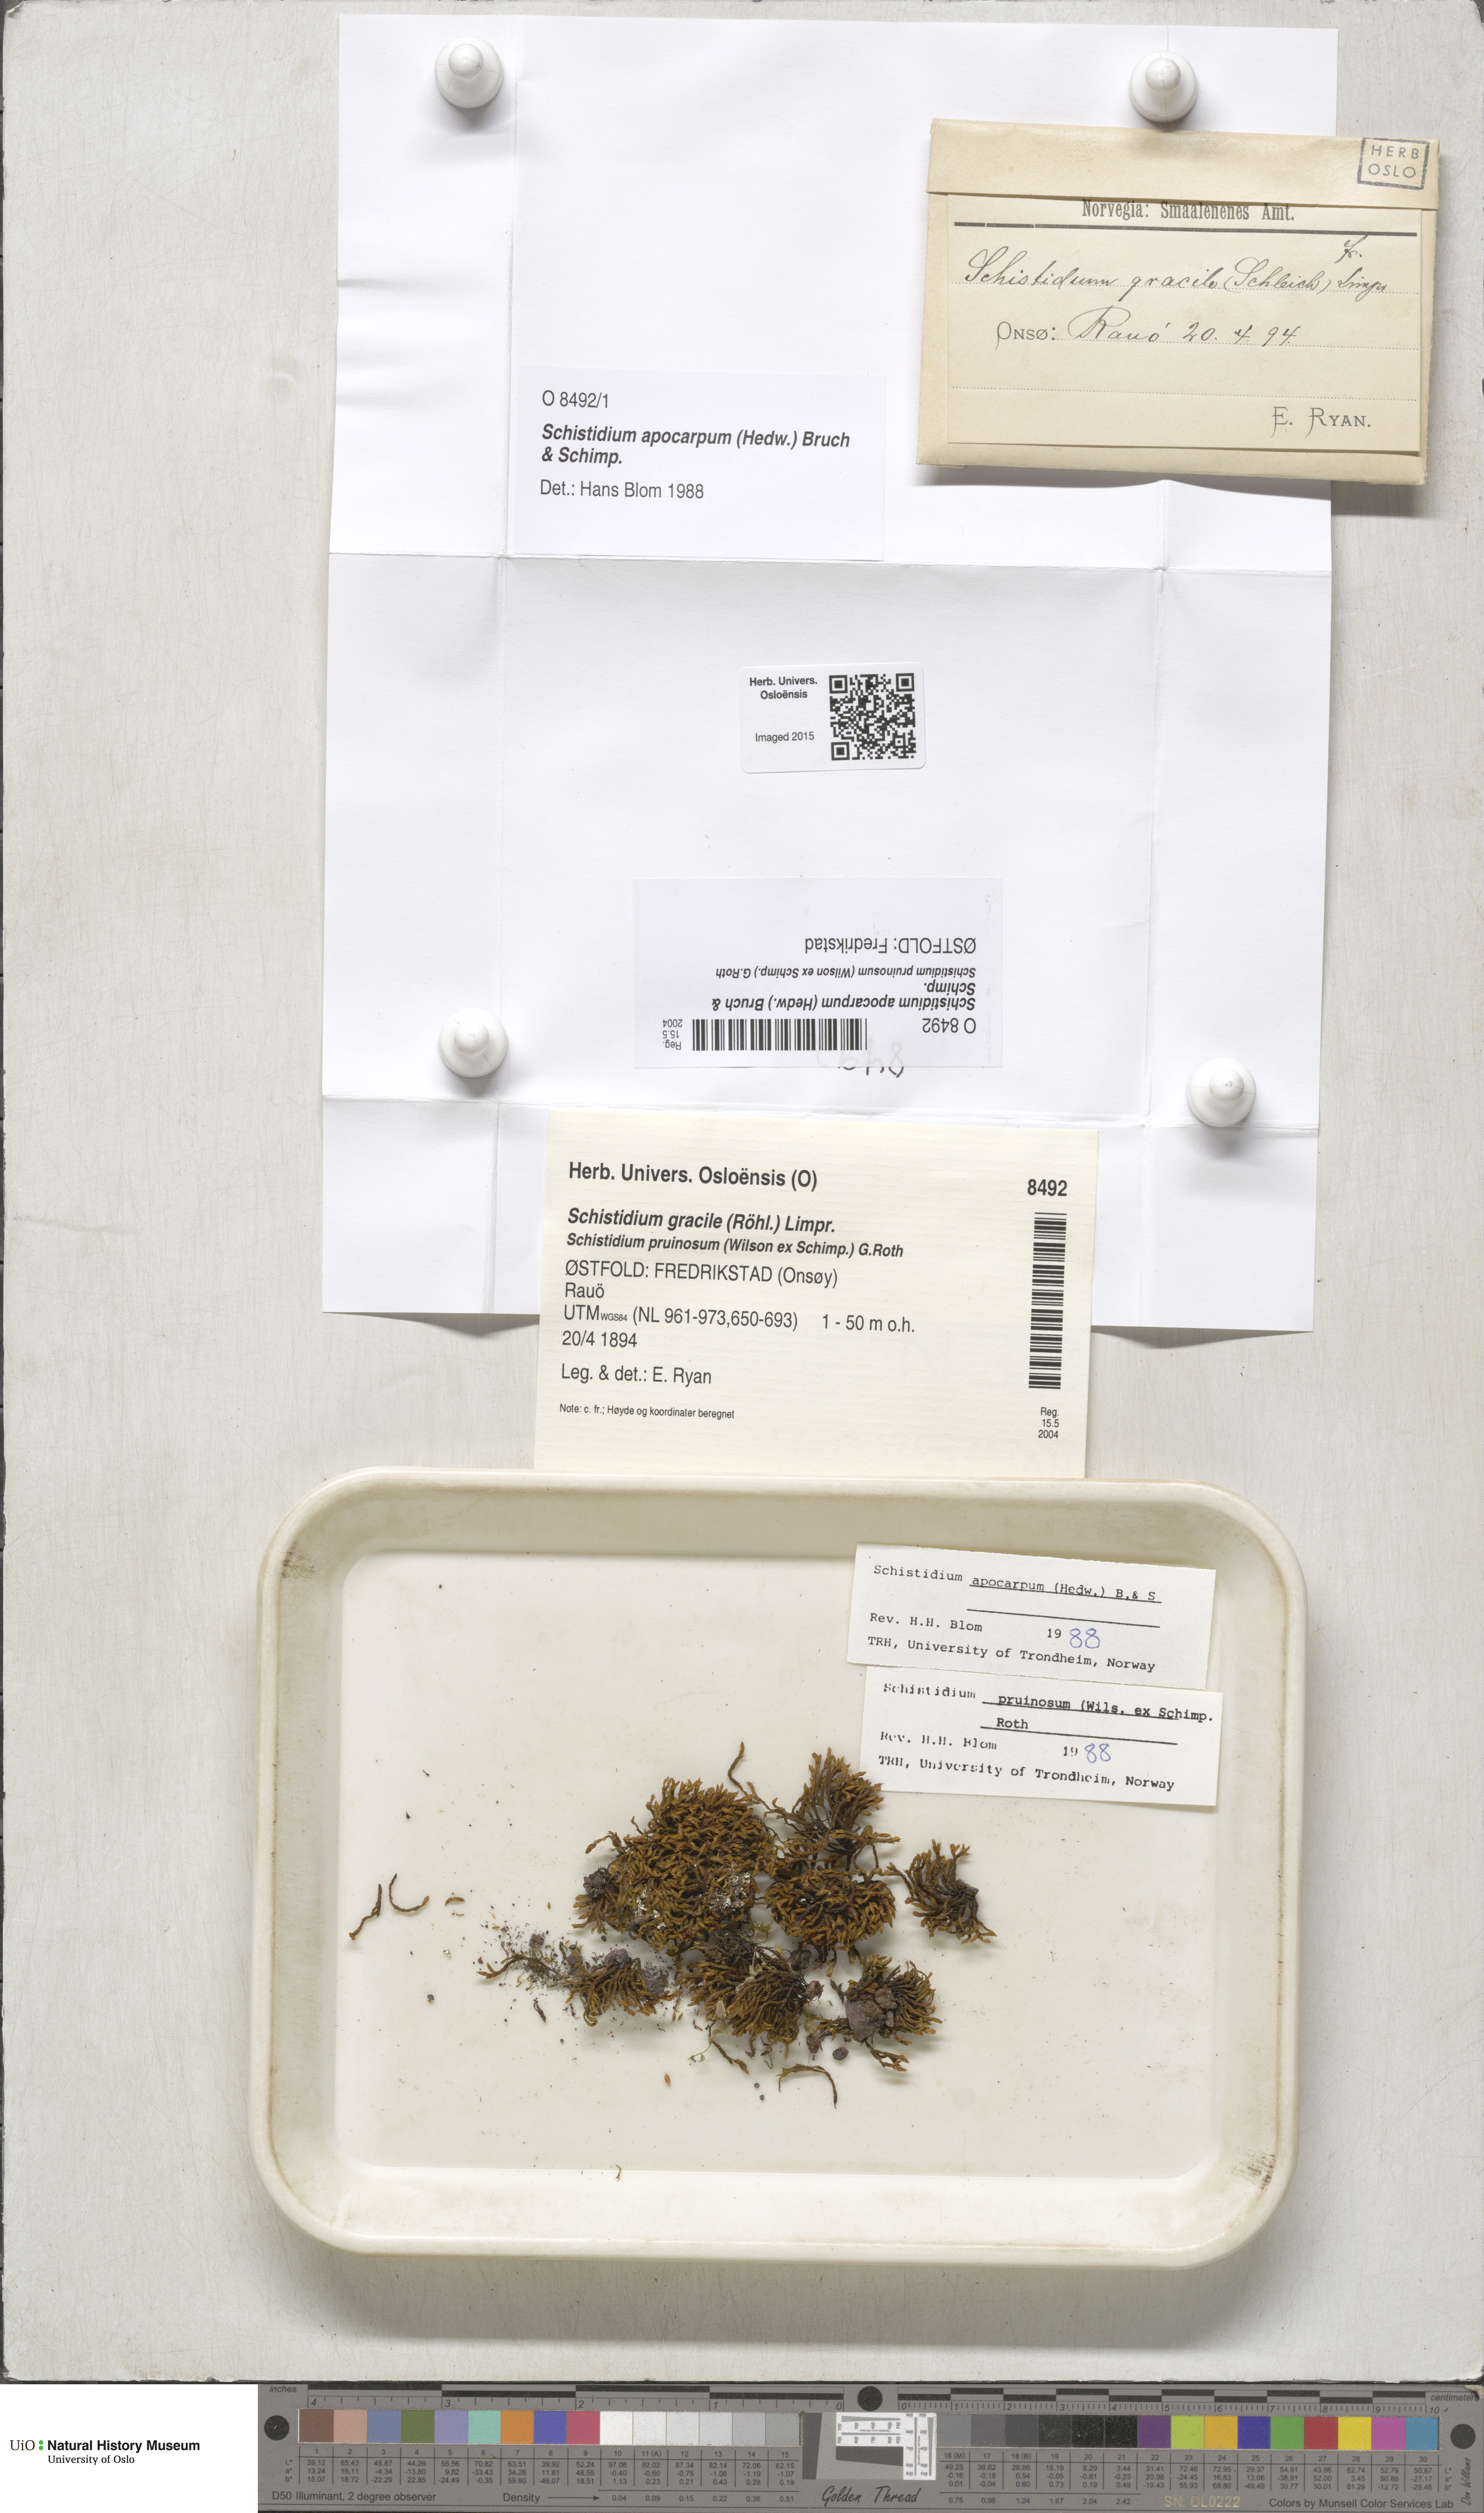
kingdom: Plantae
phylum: Bryophyta
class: Bryopsida
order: Grimmiales
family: Grimmiaceae
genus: Schistidium
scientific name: Schistidium apocarpum
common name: Radiate bloom moss
